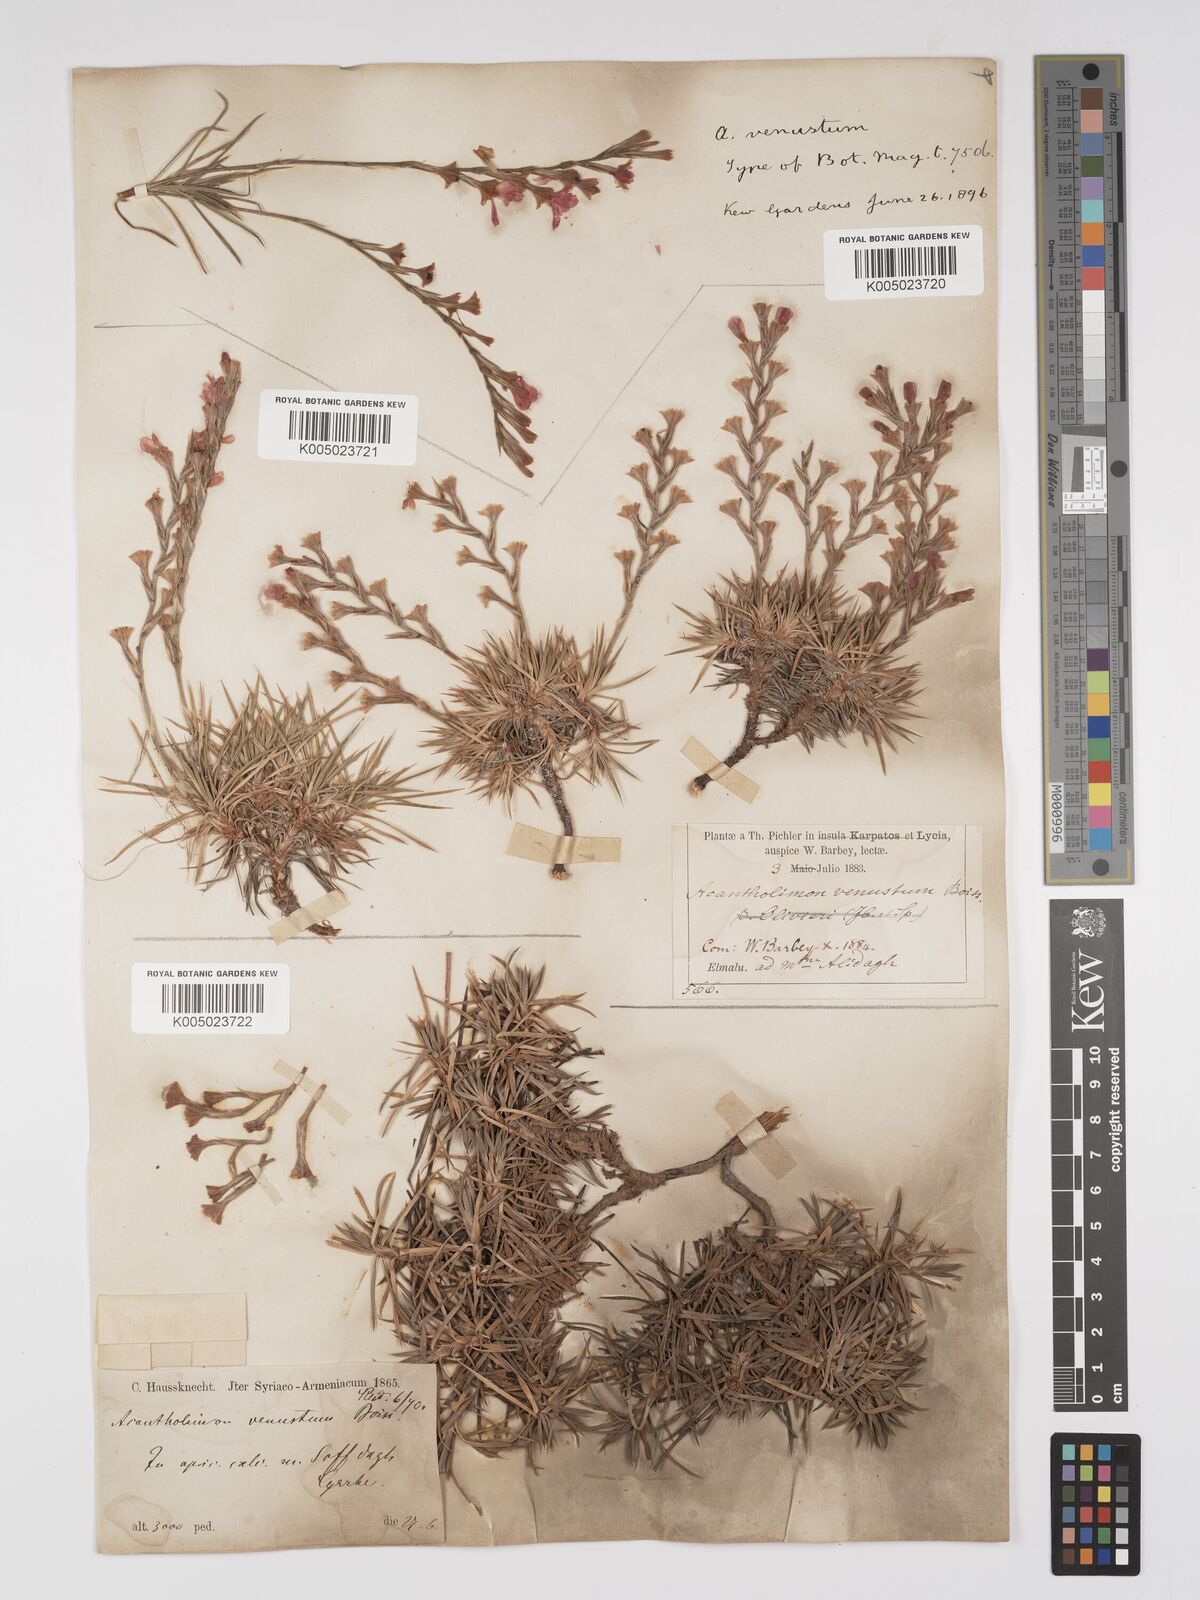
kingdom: Plantae
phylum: Tracheophyta
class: Magnoliopsida
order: Caryophyllales
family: Plumbaginaceae
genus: Acantholimon
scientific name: Acantholimon venustum
